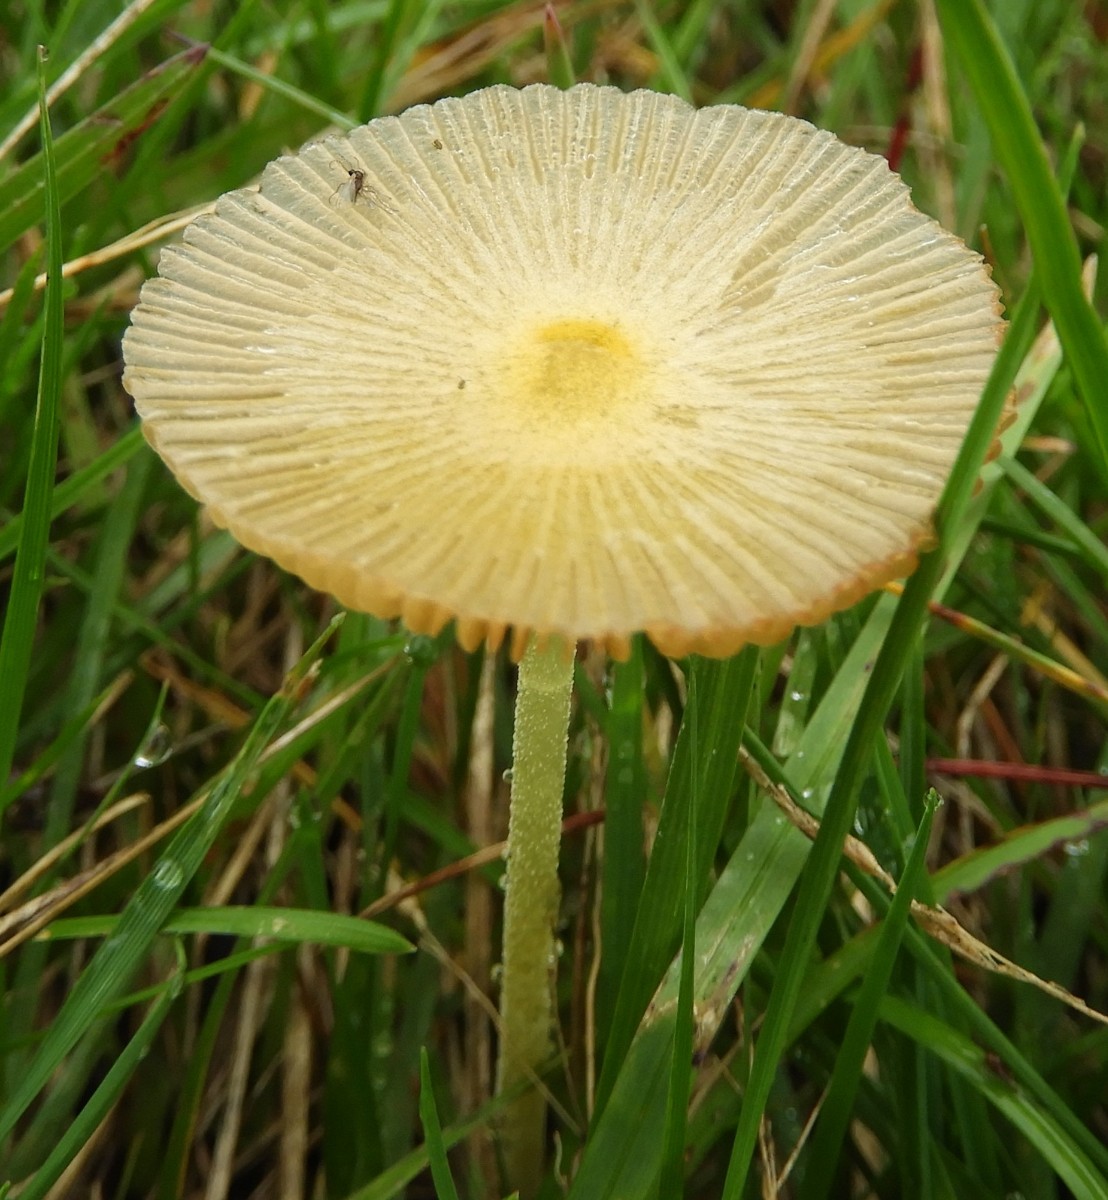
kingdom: Fungi
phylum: Basidiomycota
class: Agaricomycetes
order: Agaricales
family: Bolbitiaceae
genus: Bolbitius
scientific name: Bolbitius titubans
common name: almindelig gulhat
